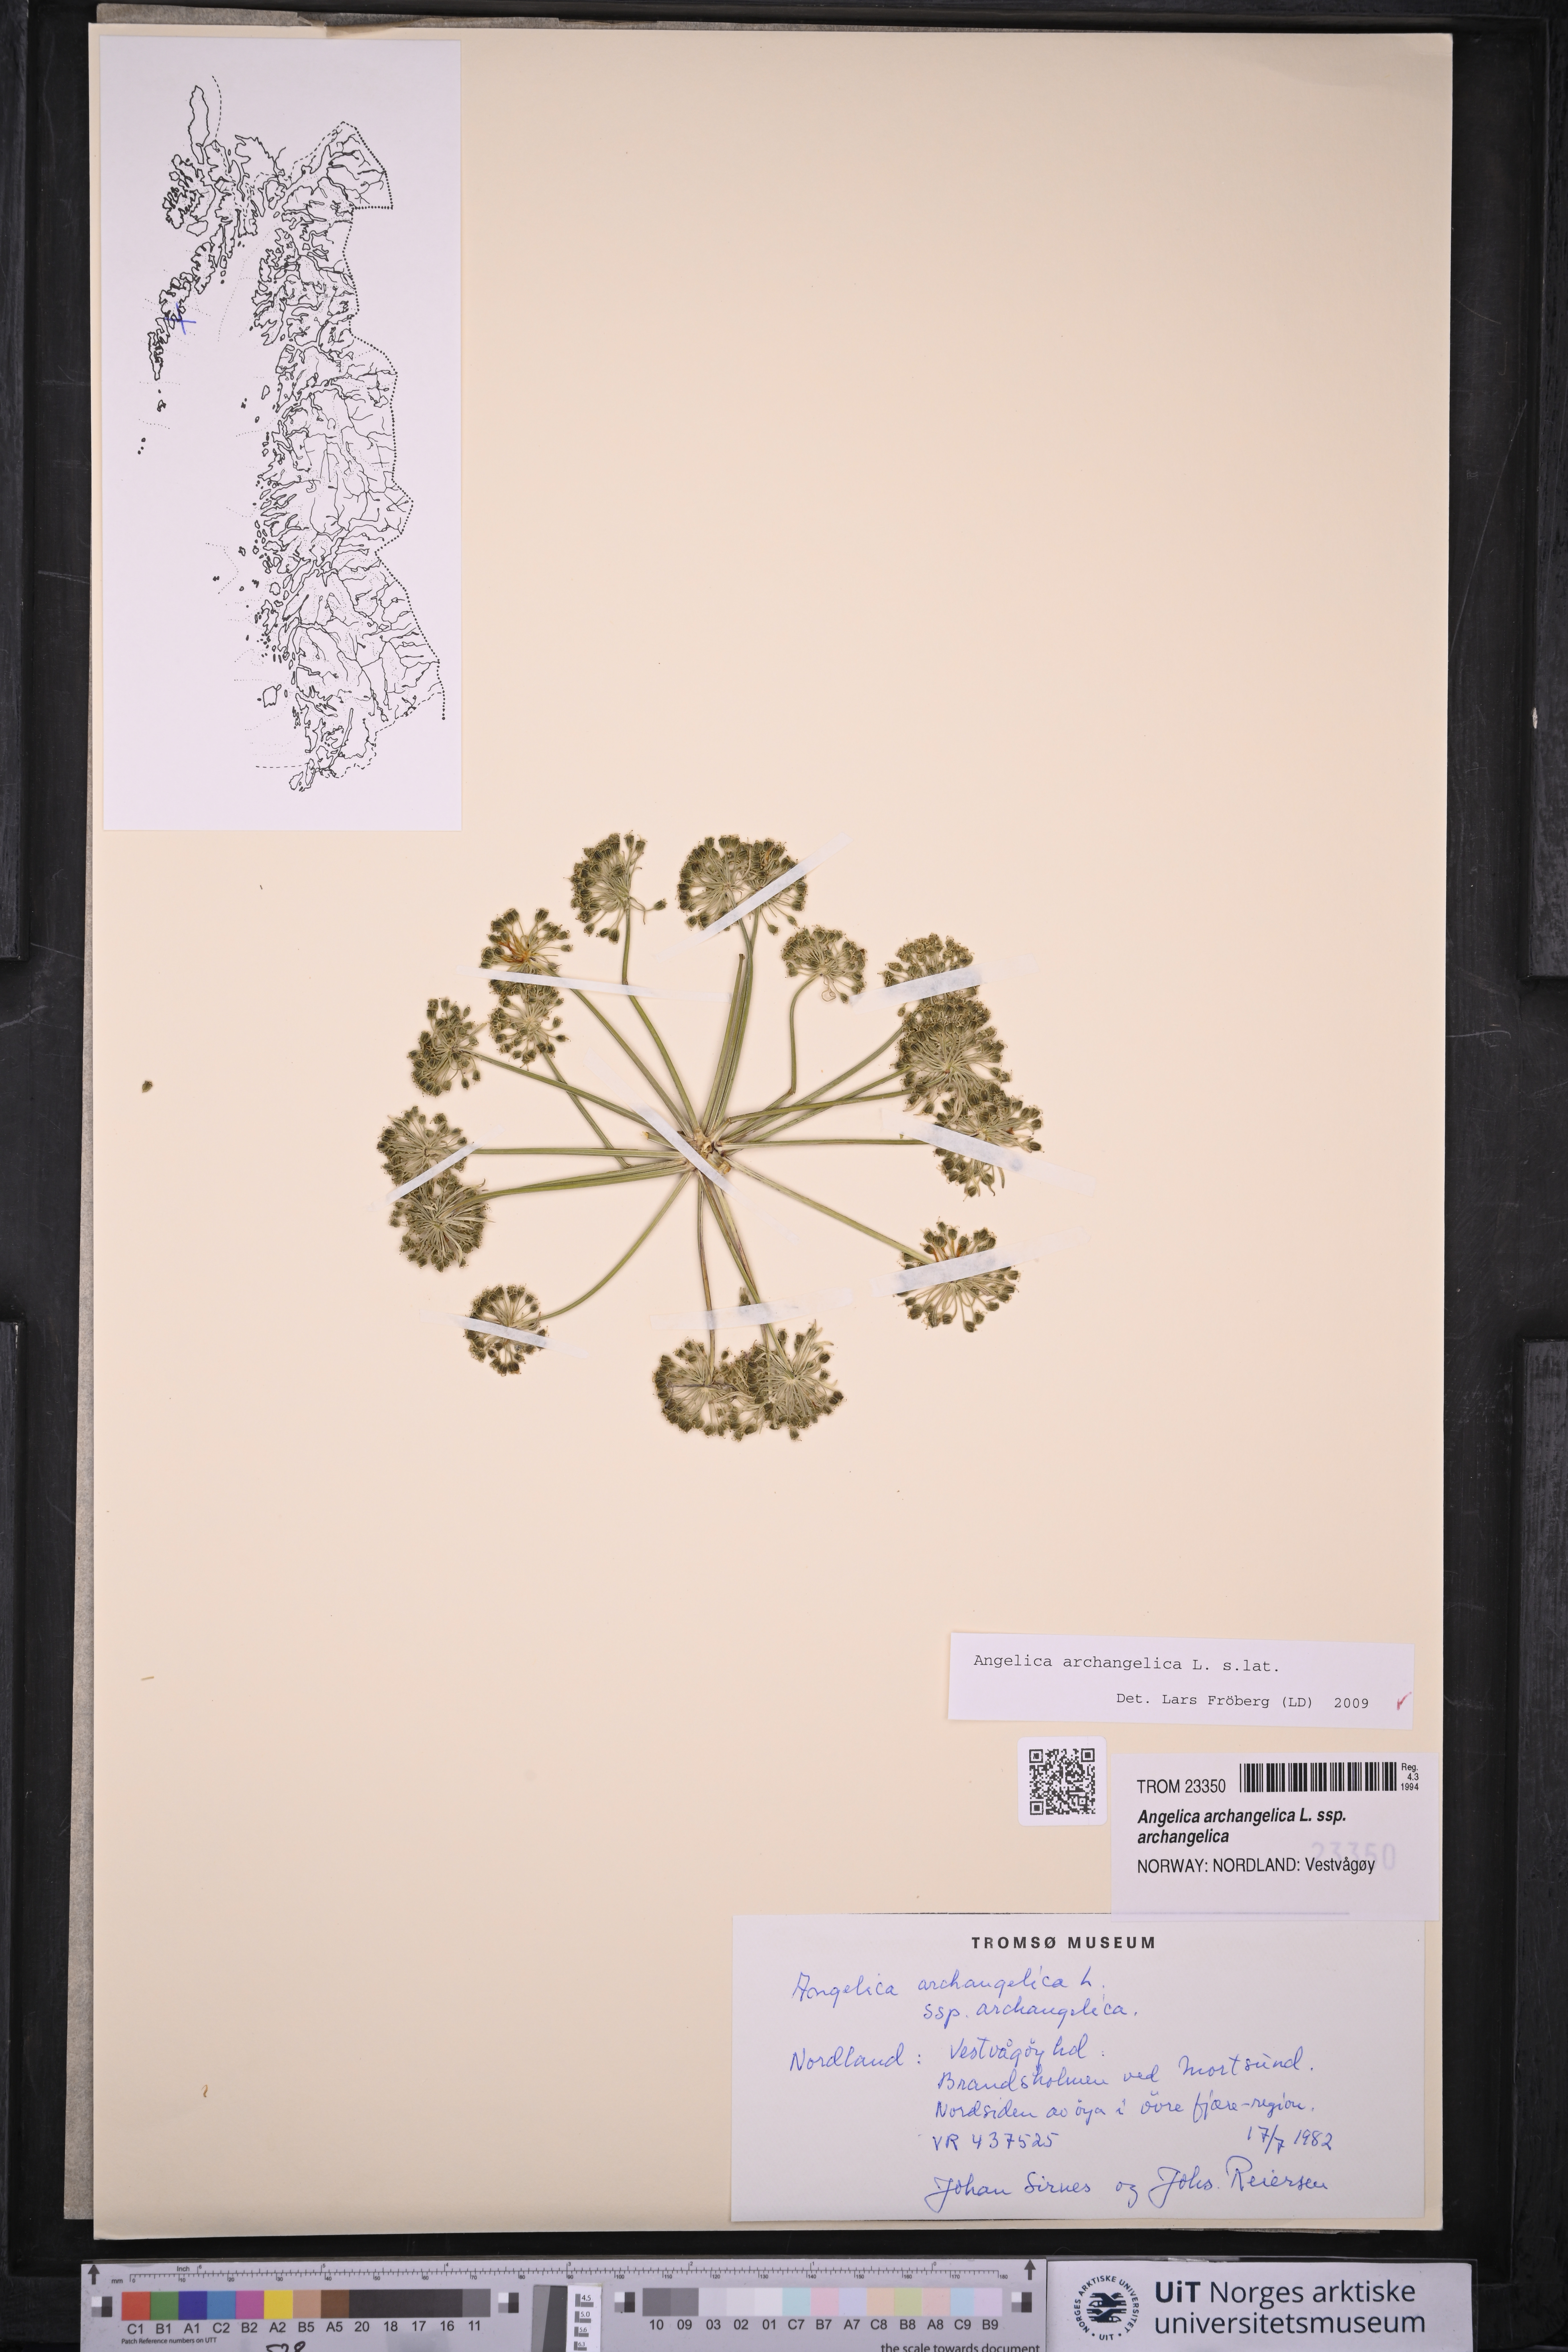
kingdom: Plantae
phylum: Tracheophyta
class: Magnoliopsida
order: Apiales
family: Apiaceae
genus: Angelica
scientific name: Angelica archangelica
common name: Garden angelica
